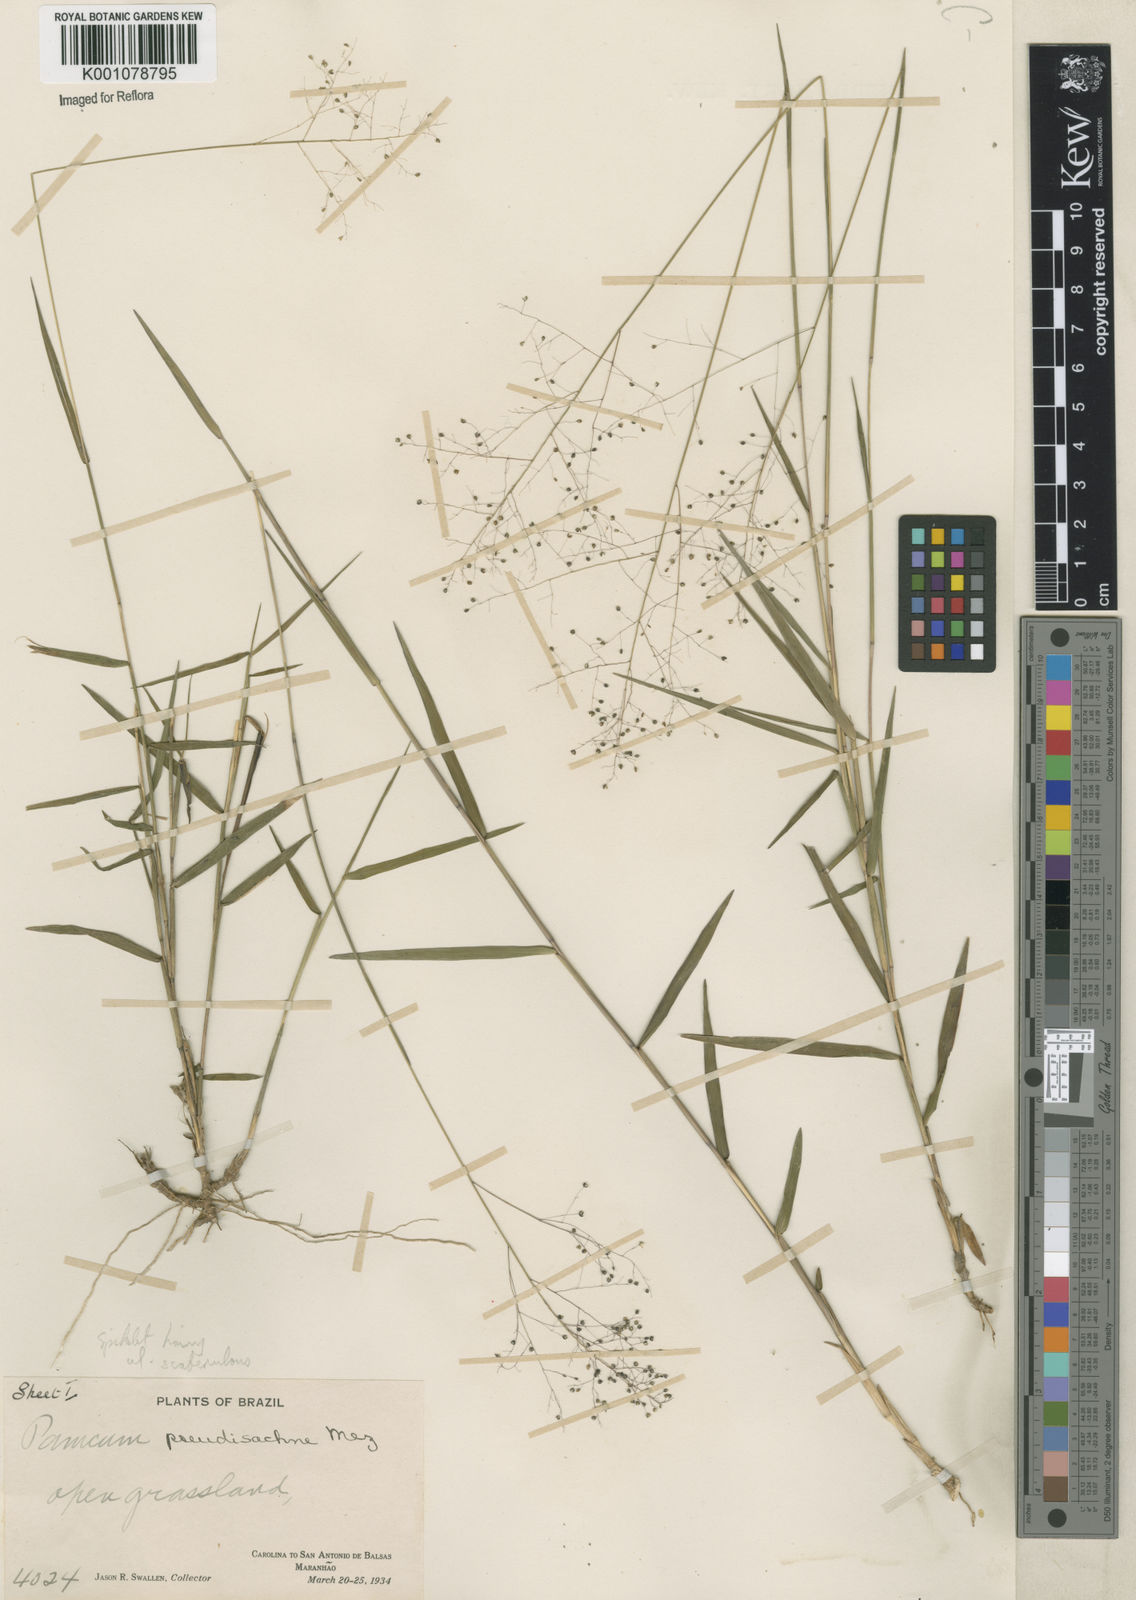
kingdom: Plantae
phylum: Tracheophyta
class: Liliopsida
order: Poales
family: Poaceae
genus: Trichanthecium
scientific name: Trichanthecium pseudisachne
